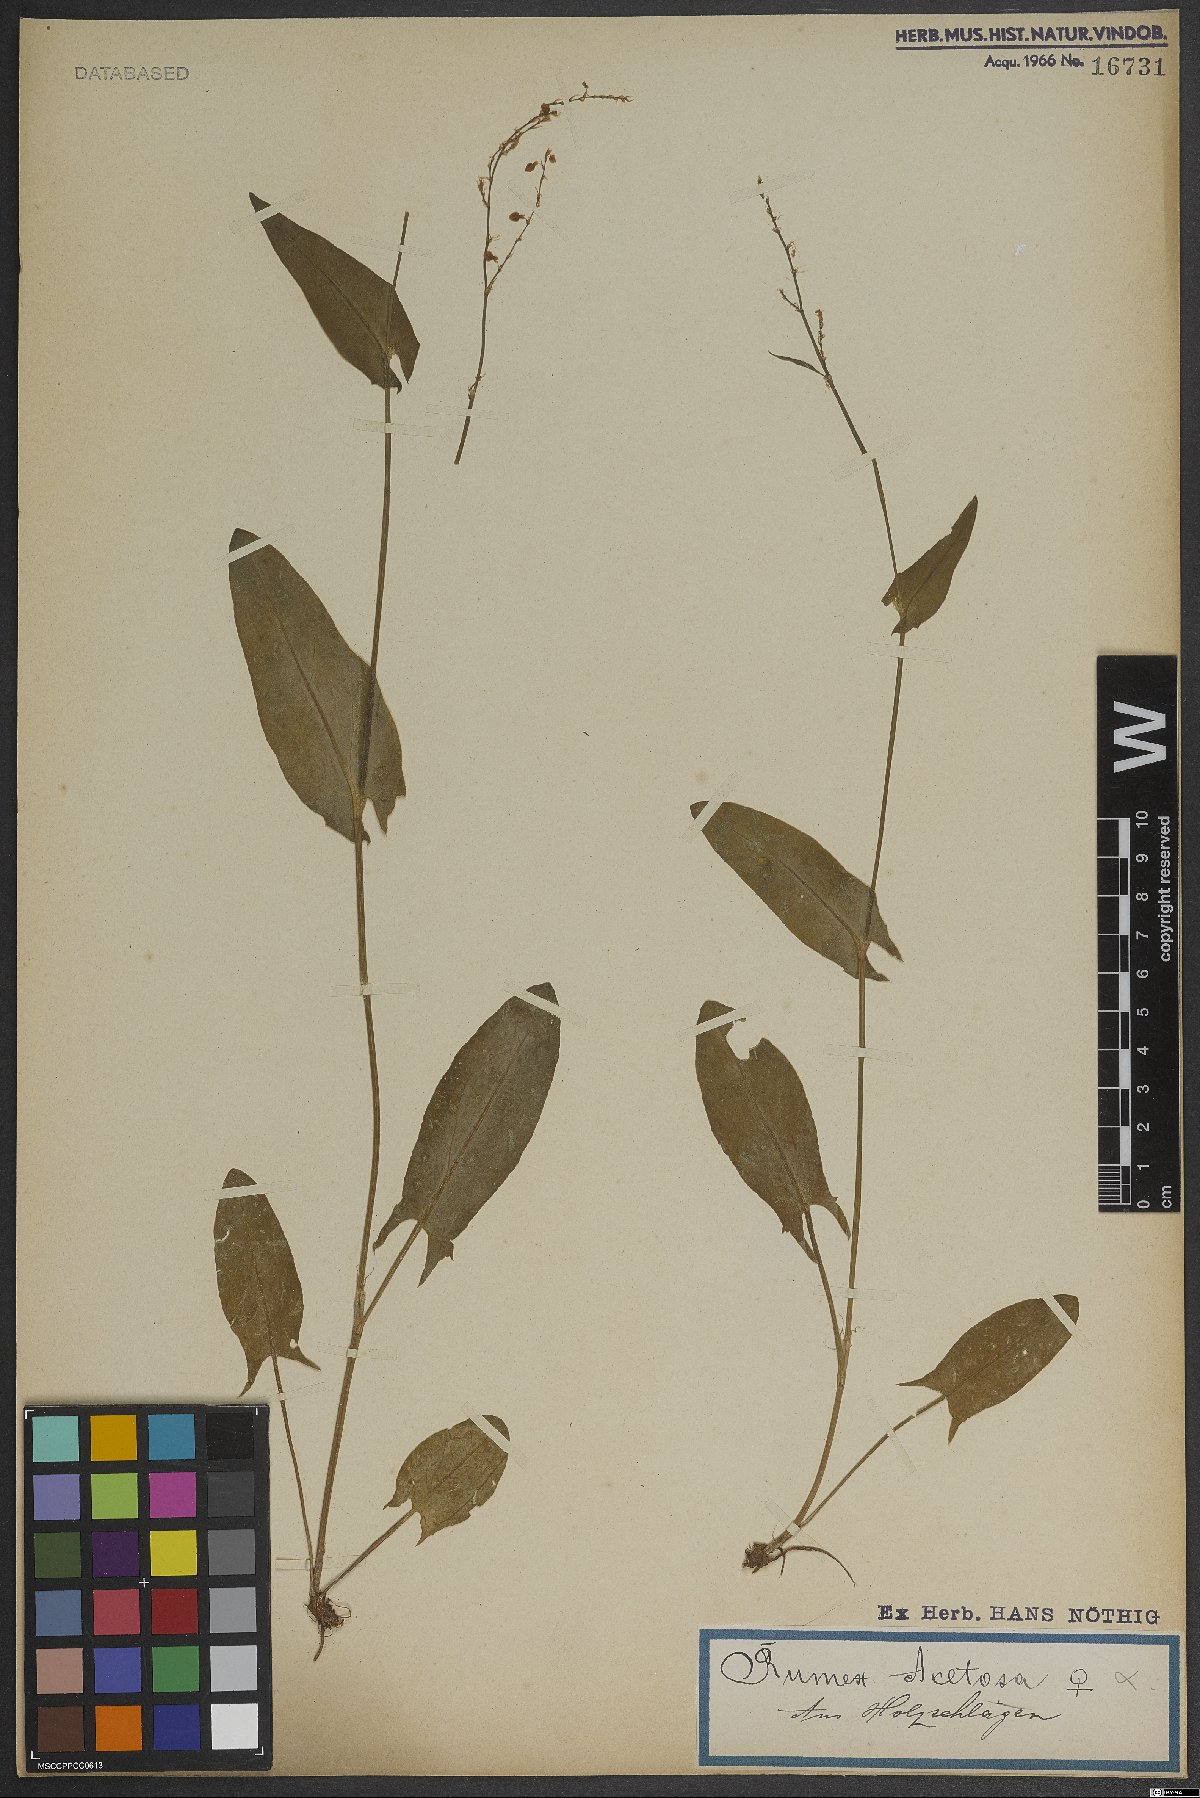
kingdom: Plantae
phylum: Tracheophyta
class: Magnoliopsida
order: Caryophyllales
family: Polygonaceae
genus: Rumex
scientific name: Rumex acetosa
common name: Garden sorrel
